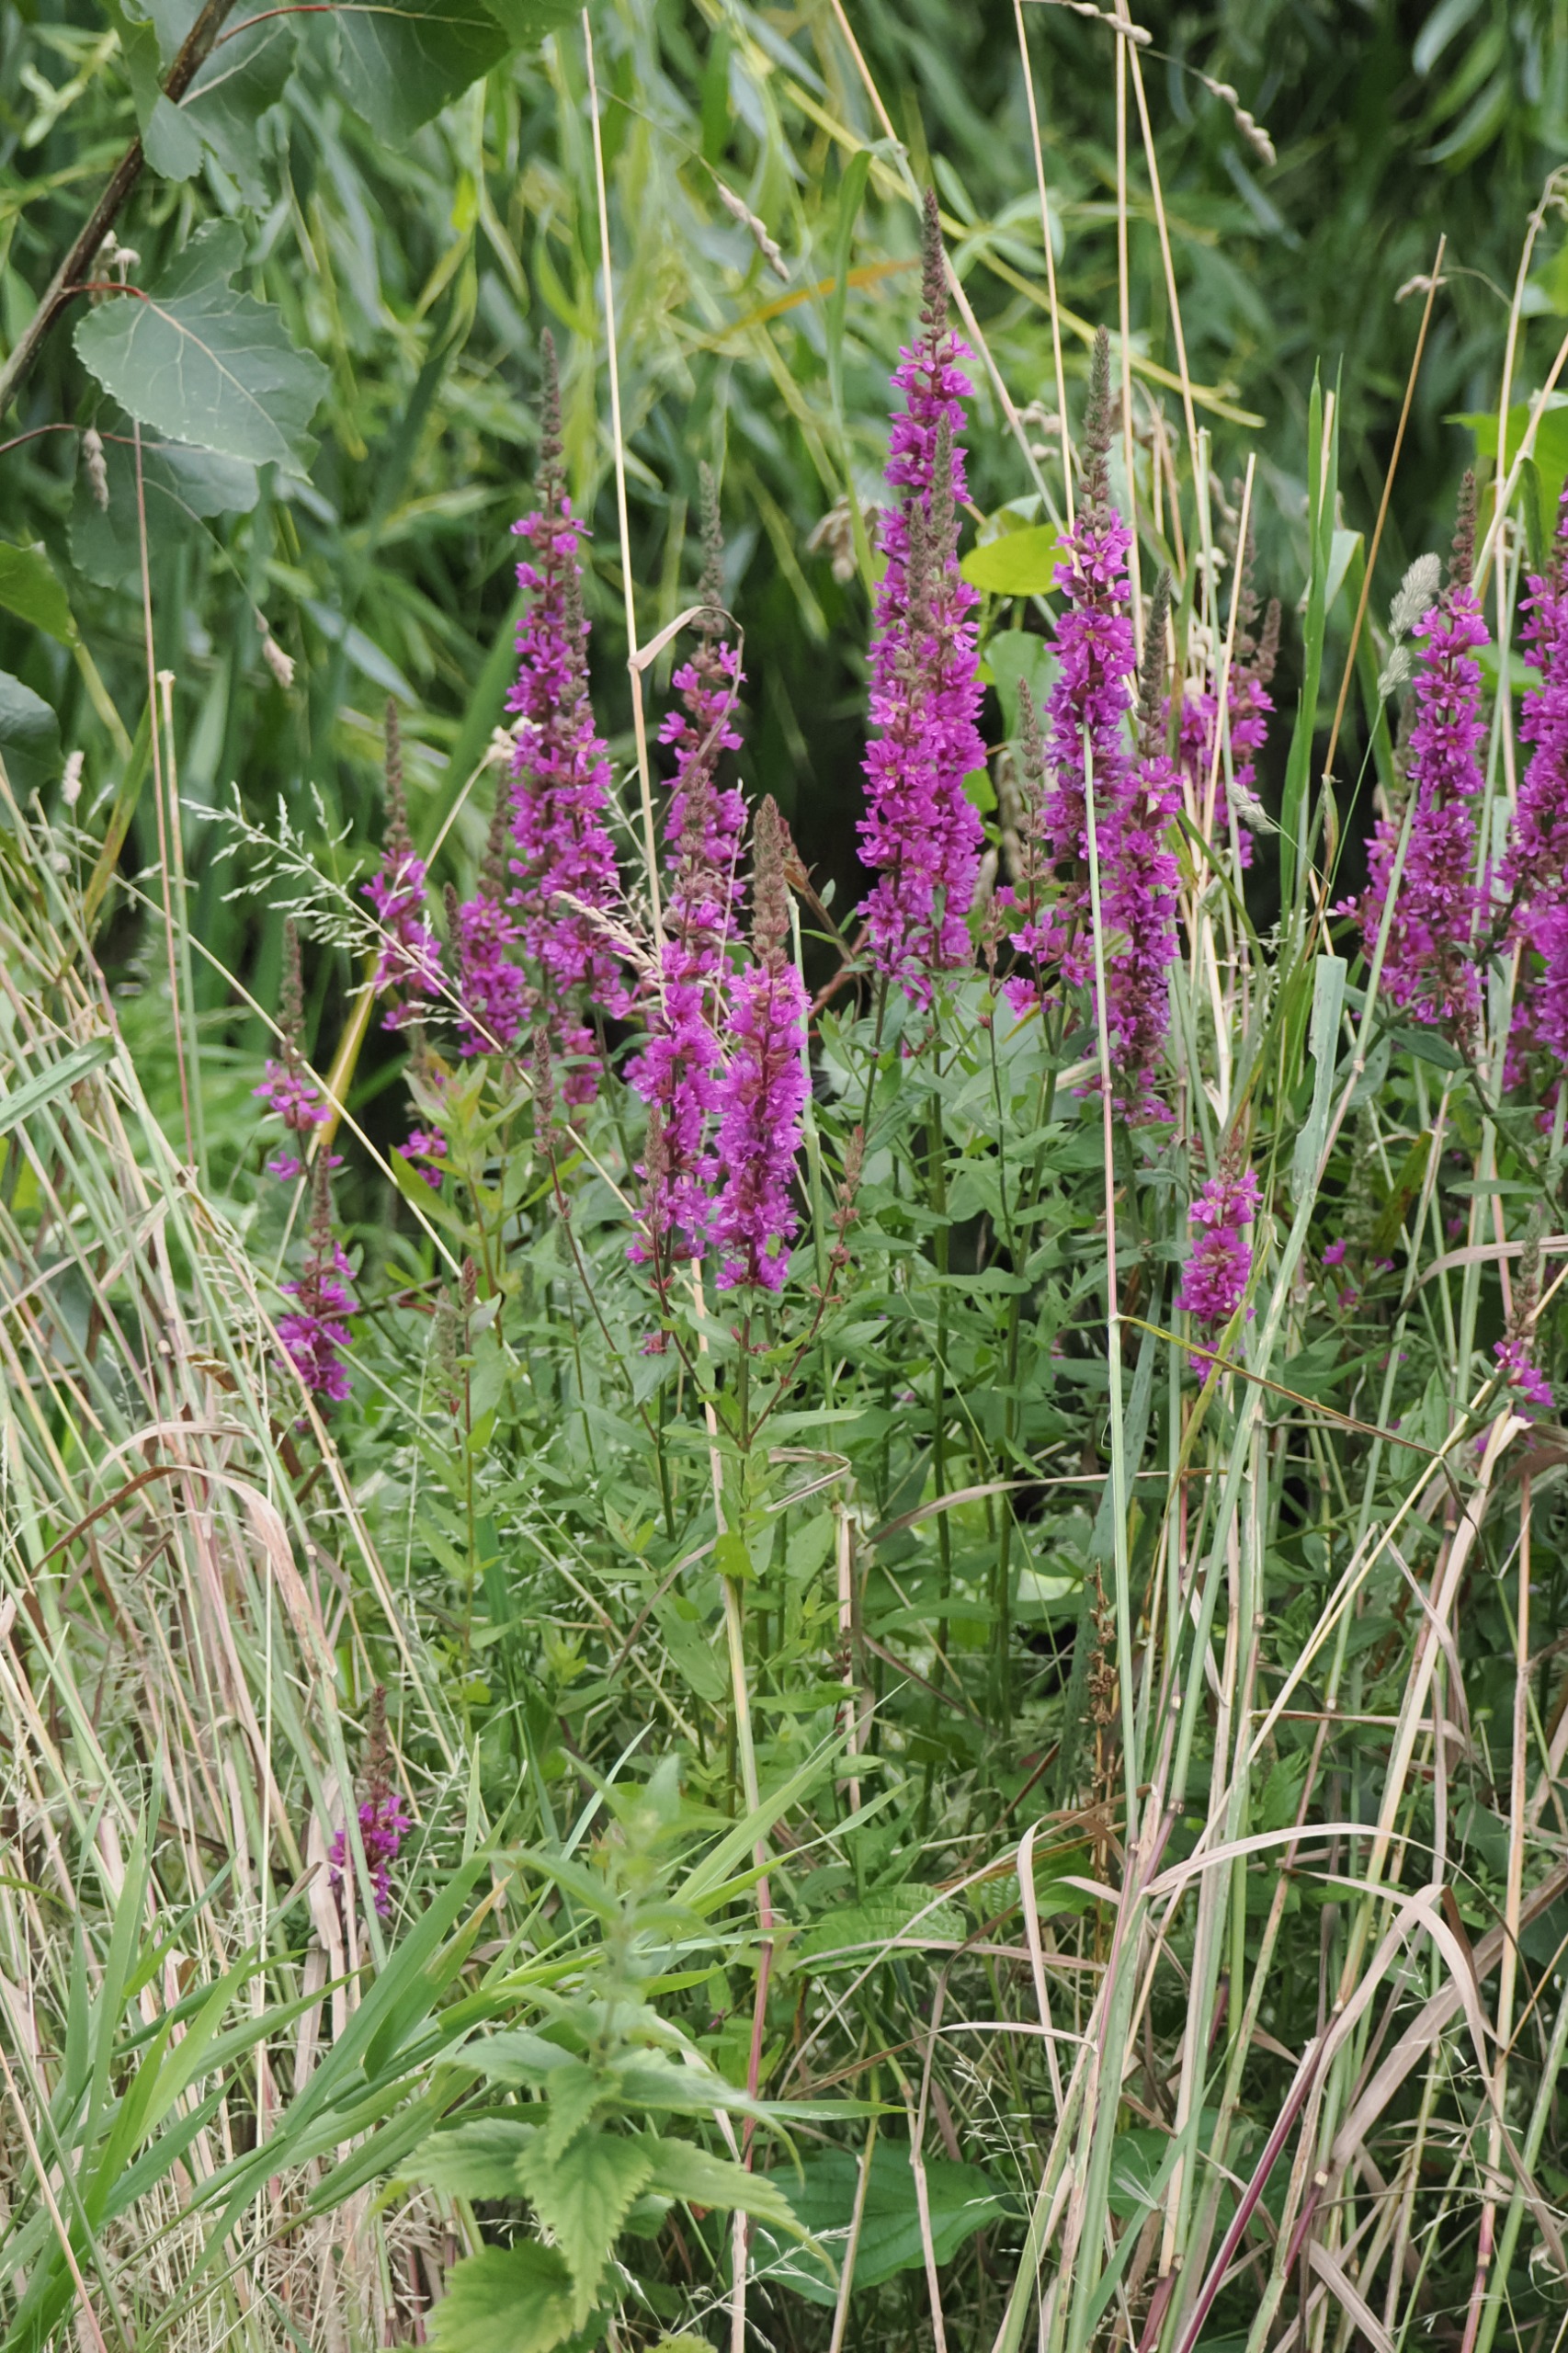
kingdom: Plantae
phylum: Tracheophyta
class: Magnoliopsida
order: Myrtales
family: Lythraceae
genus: Lythrum
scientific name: Lythrum salicaria
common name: Kattehale
